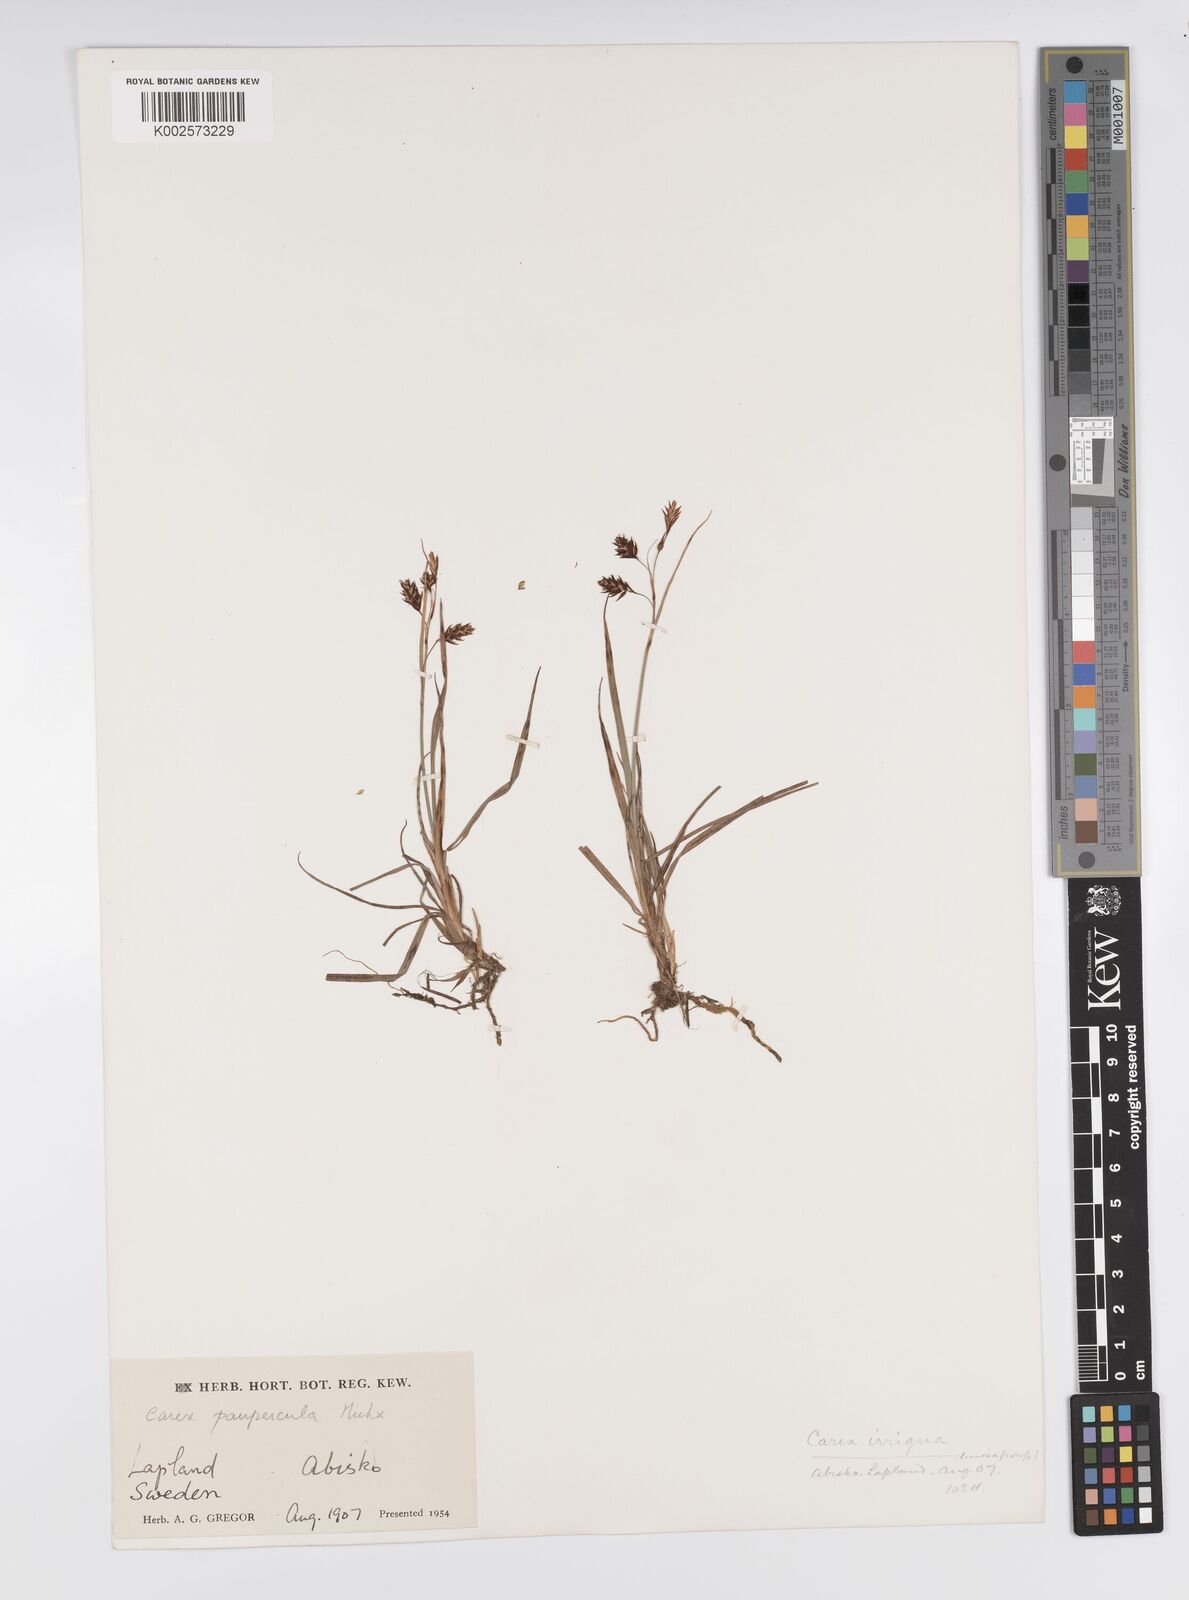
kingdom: Plantae
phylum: Tracheophyta
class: Liliopsida
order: Poales
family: Cyperaceae
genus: Carex
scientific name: Carex magellanica
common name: Bog sedge
